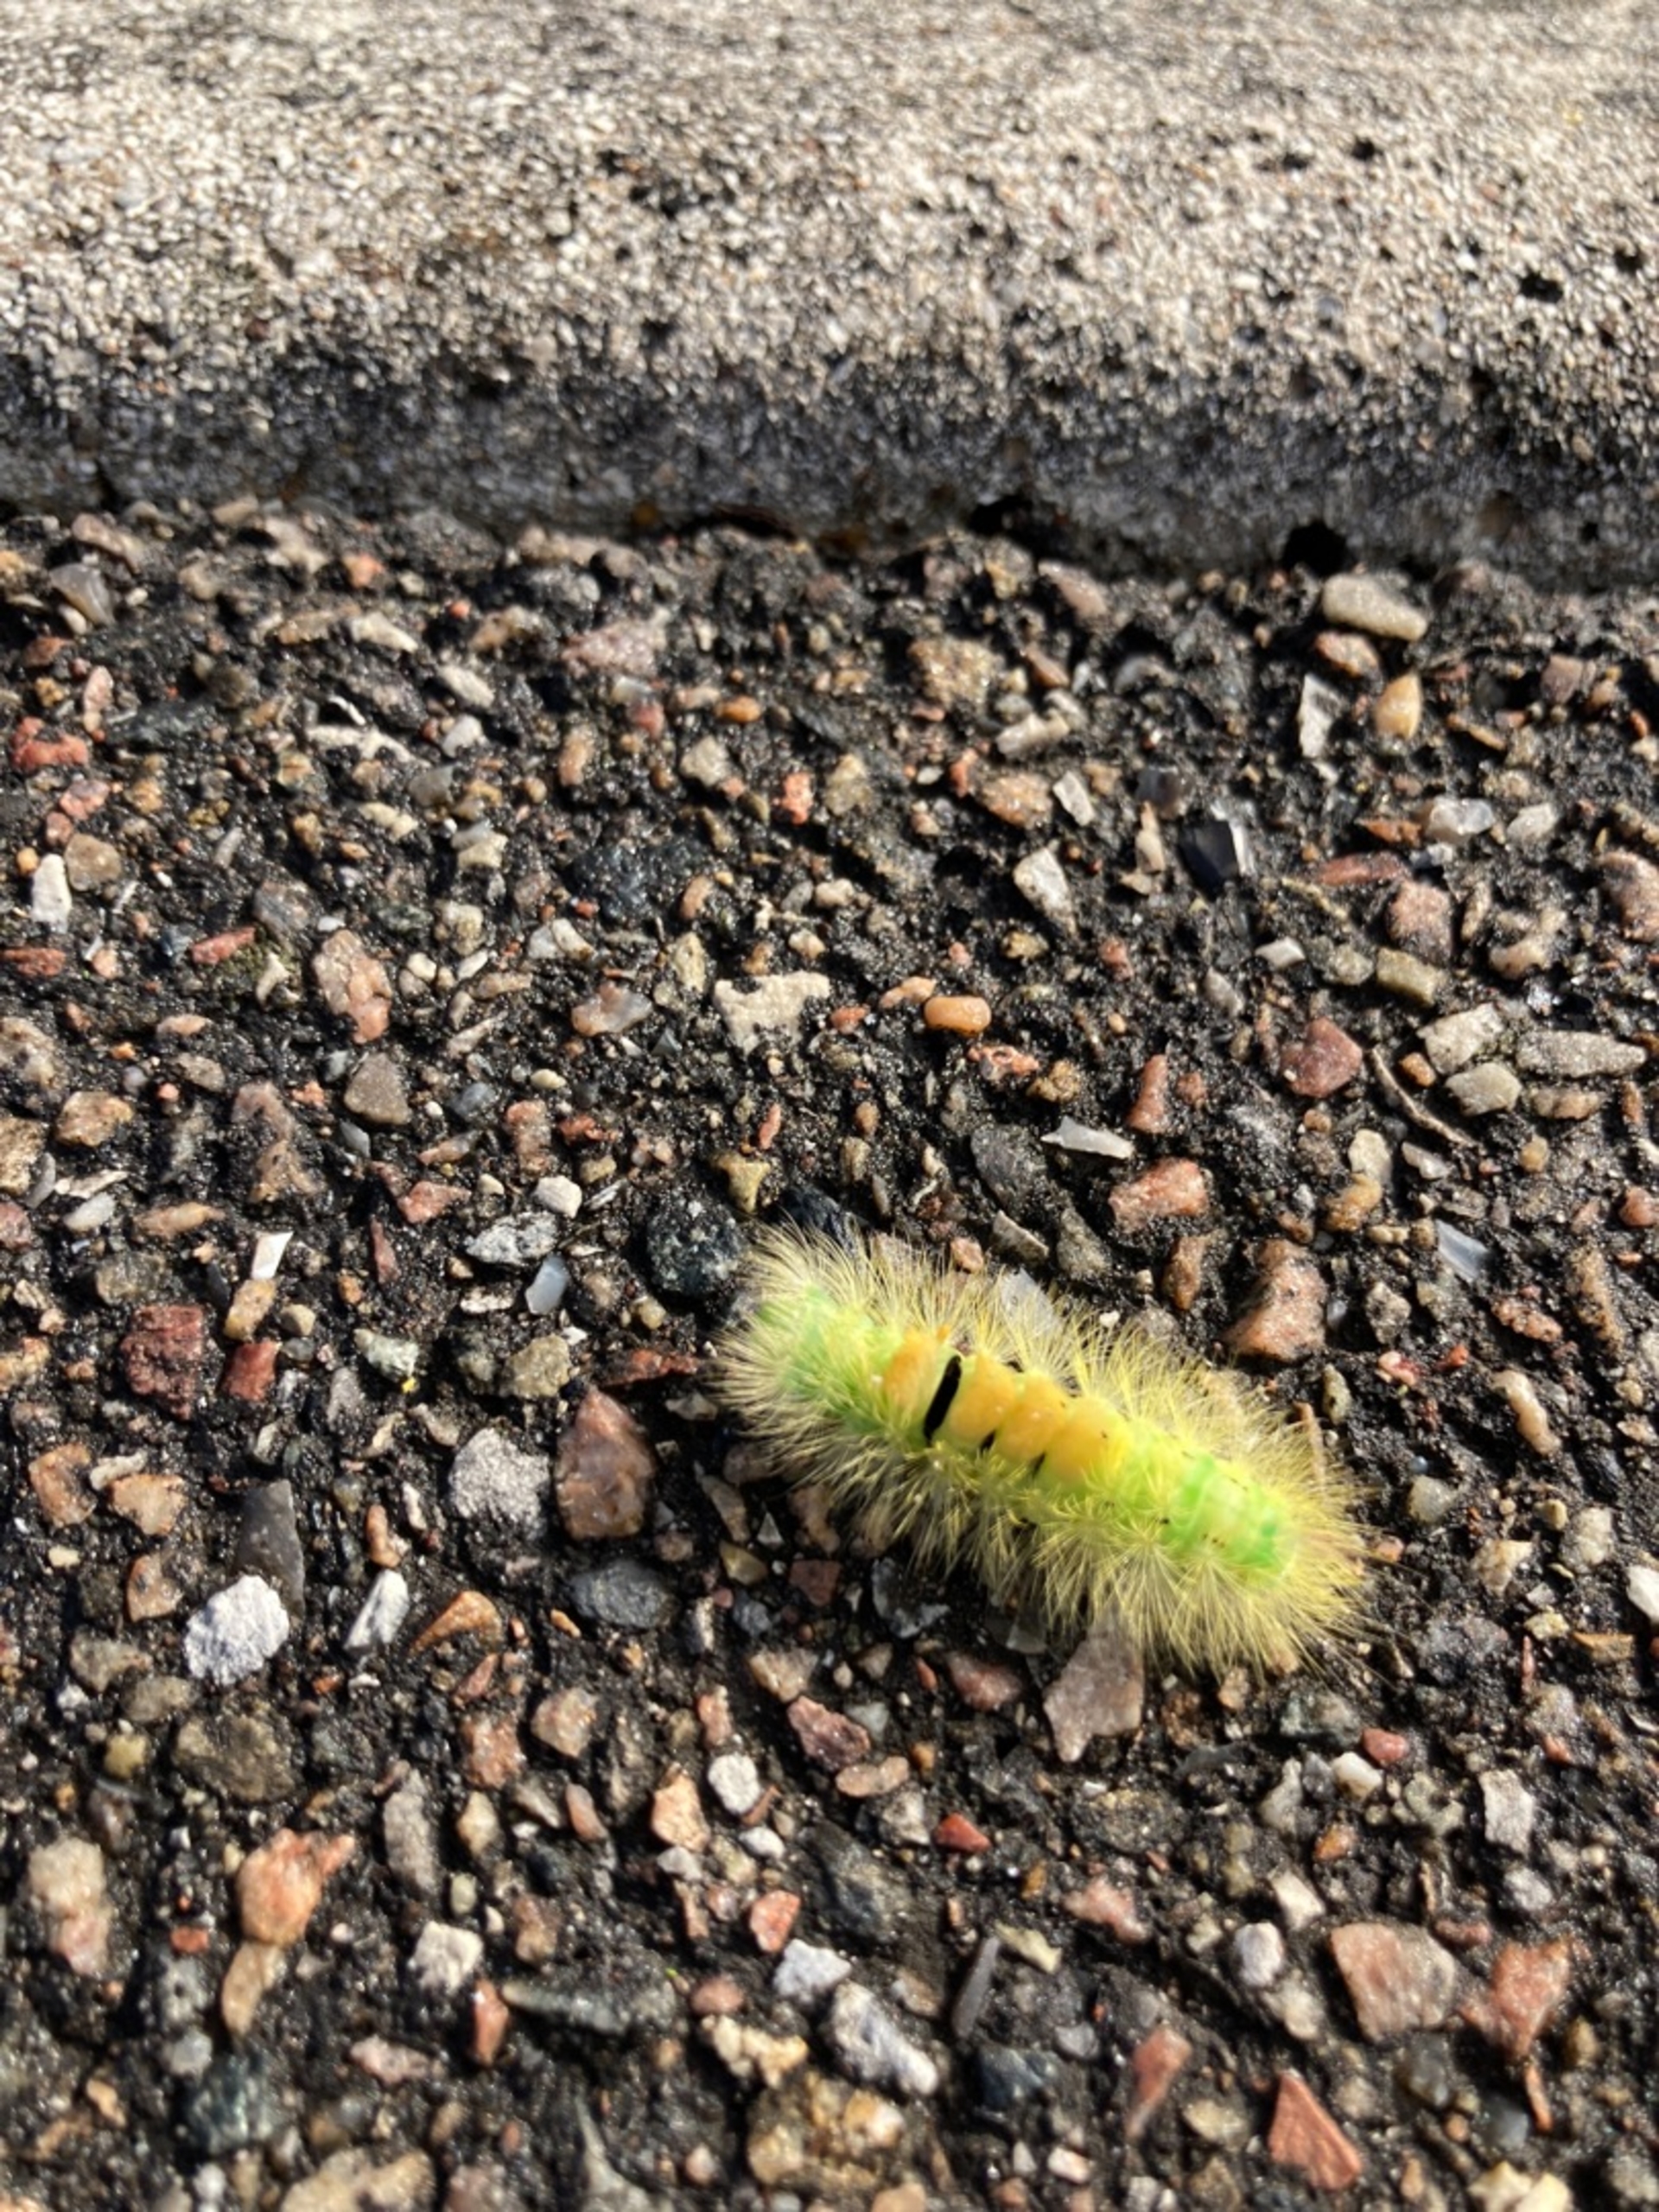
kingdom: Animalia
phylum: Arthropoda
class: Insecta
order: Lepidoptera
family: Erebidae
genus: Calliteara
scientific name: Calliteara pudibunda
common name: Bøgenonne
